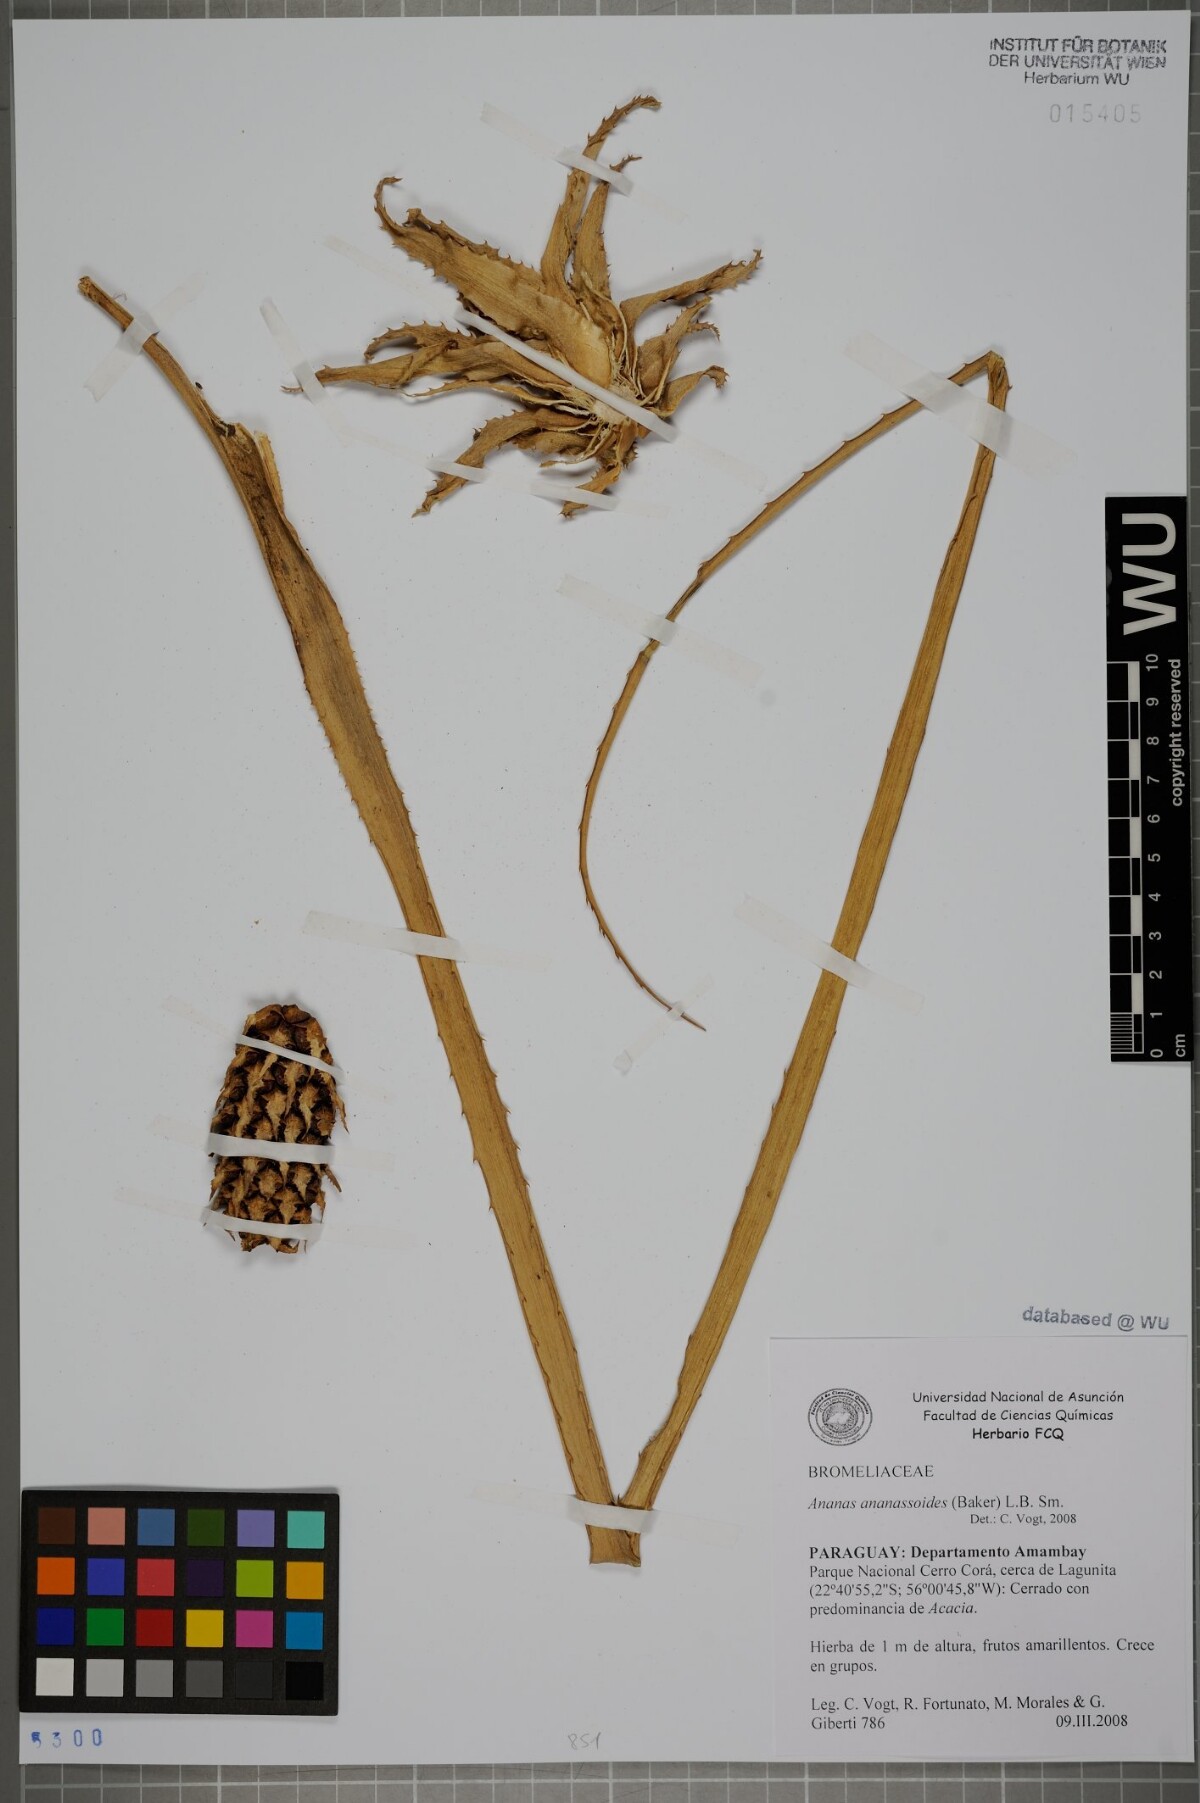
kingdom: Plantae
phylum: Tracheophyta
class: Liliopsida
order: Poales
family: Bromeliaceae
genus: Ananas
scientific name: Ananas comosus
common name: Pineapple
